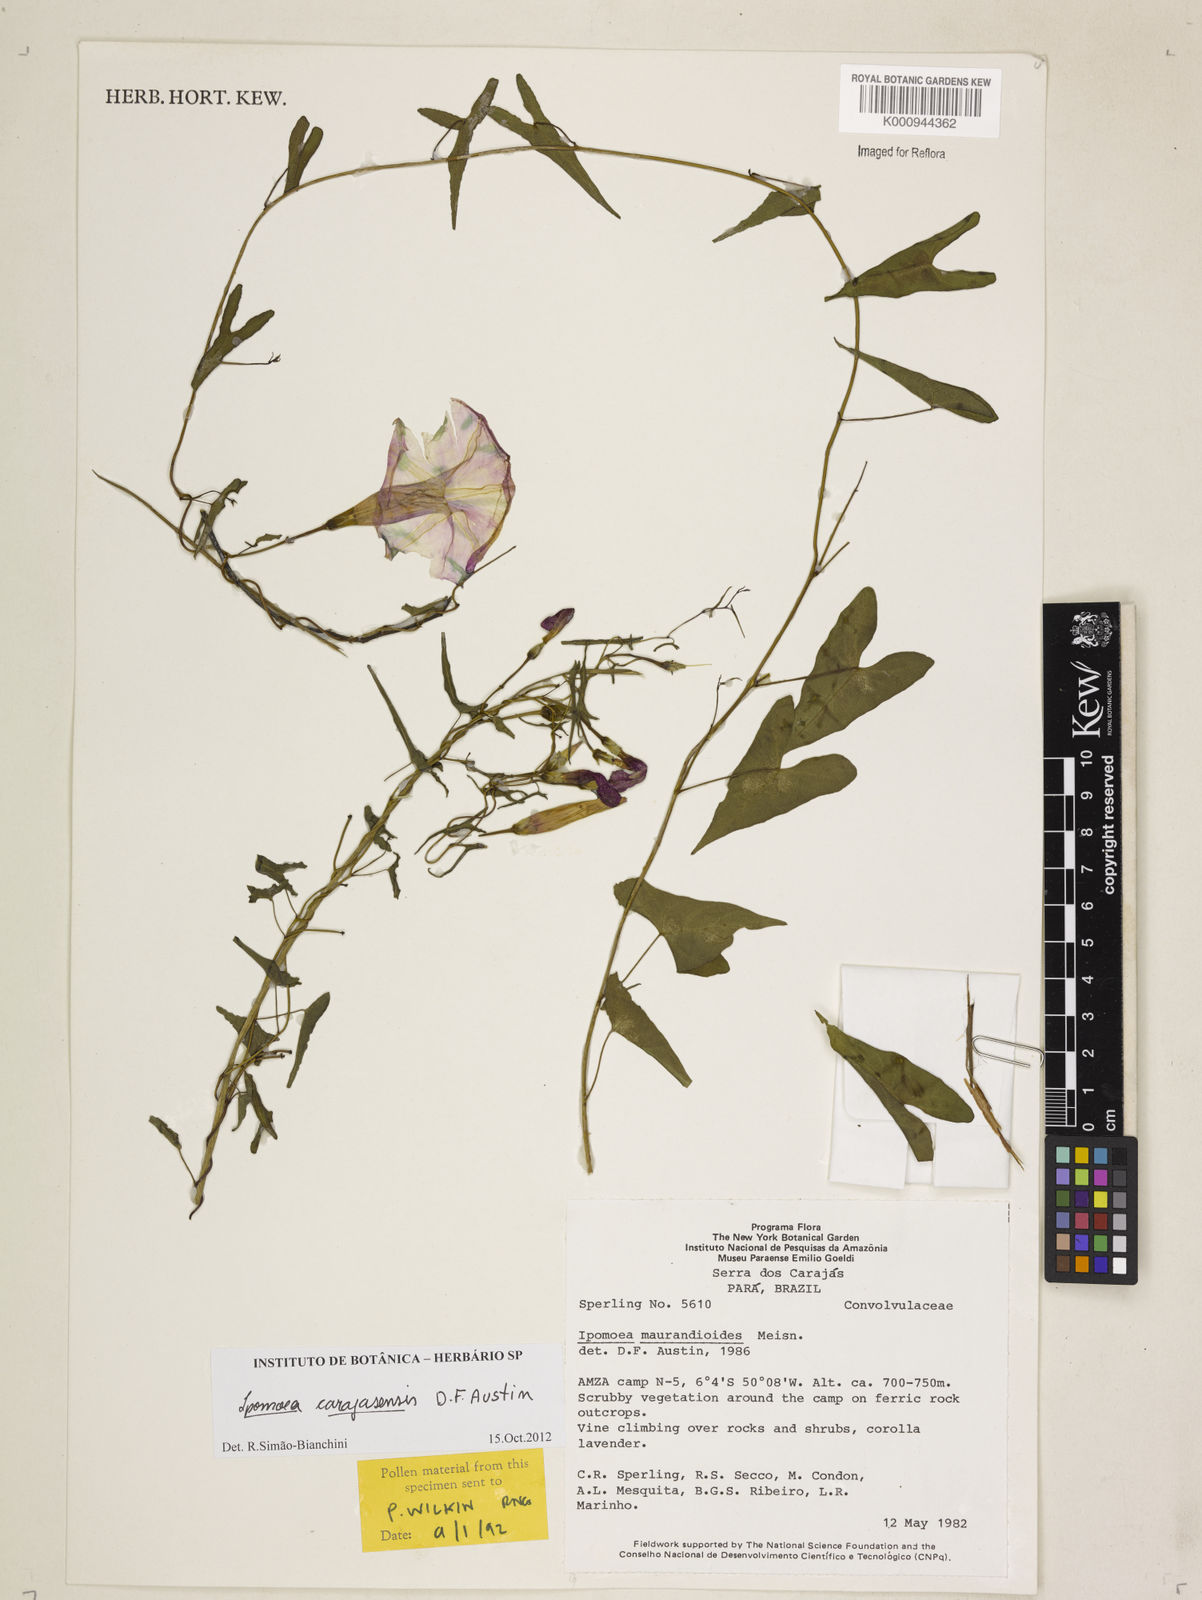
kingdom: Plantae
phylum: Tracheophyta
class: Magnoliopsida
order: Solanales
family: Convolvulaceae
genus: Ipomoea
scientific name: Ipomoea maurandioides
